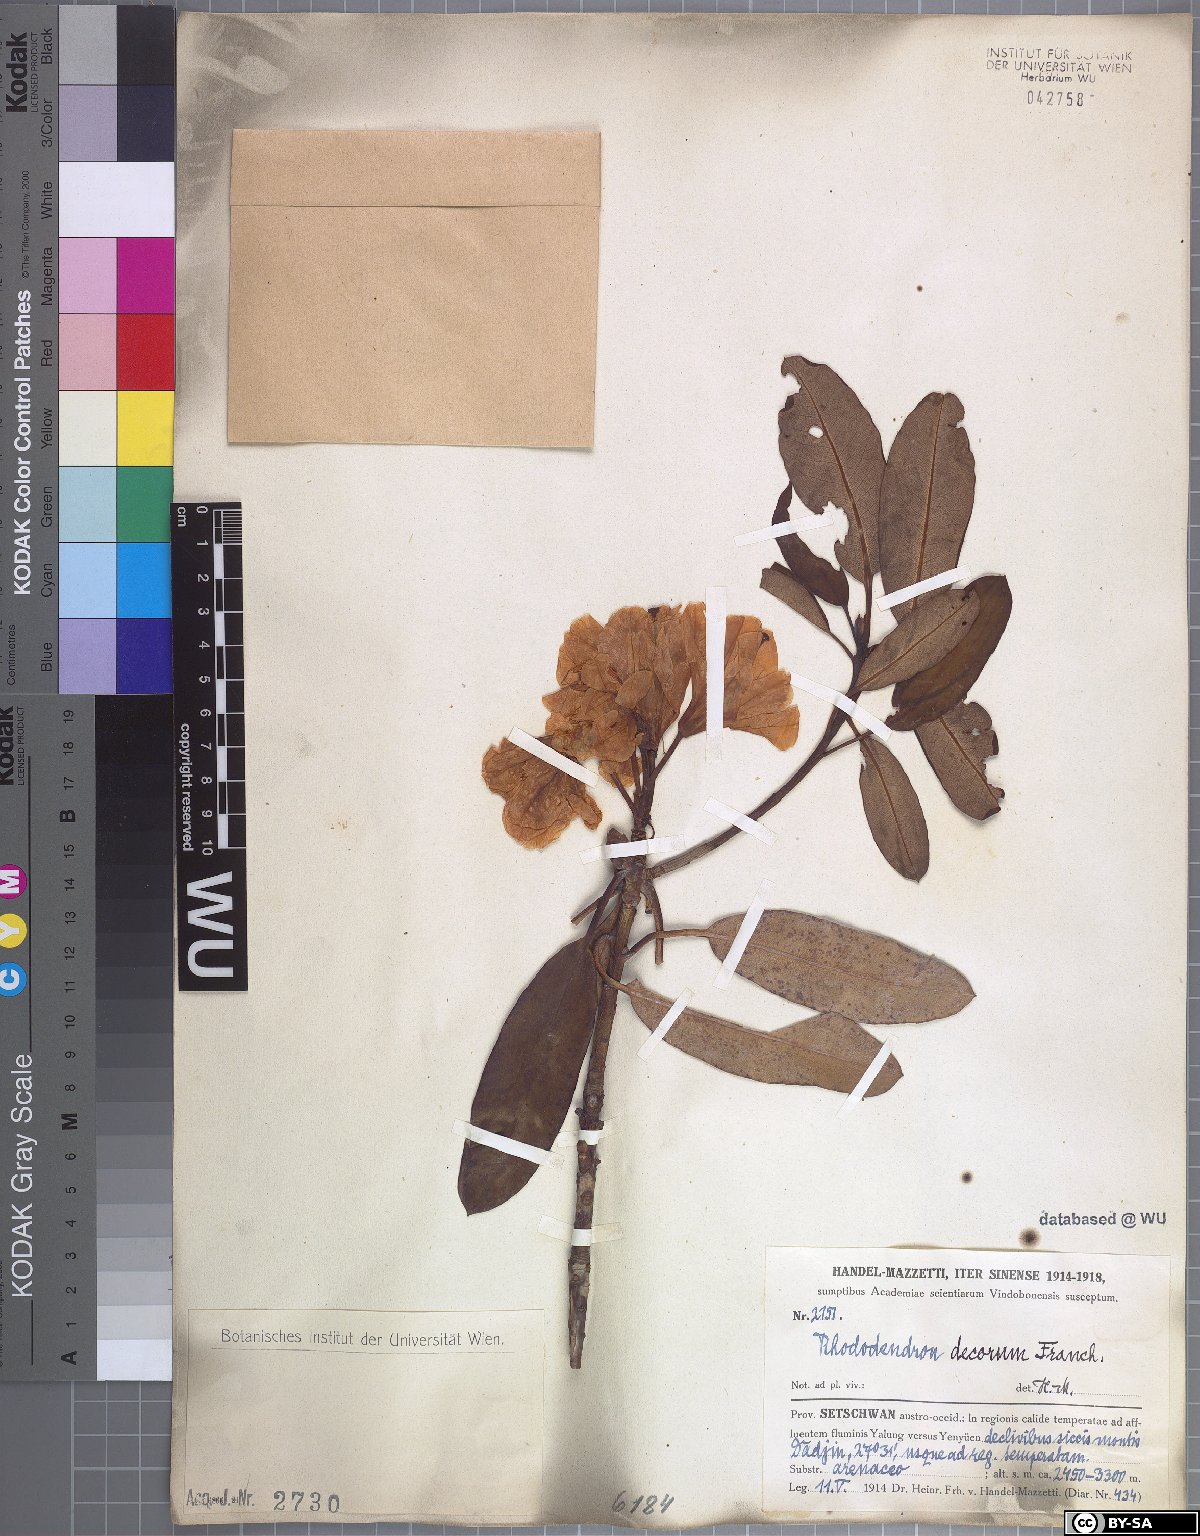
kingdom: Plantae
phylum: Tracheophyta
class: Magnoliopsida
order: Ericales
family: Ericaceae
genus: Rhododendron
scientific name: Rhododendron decorum
